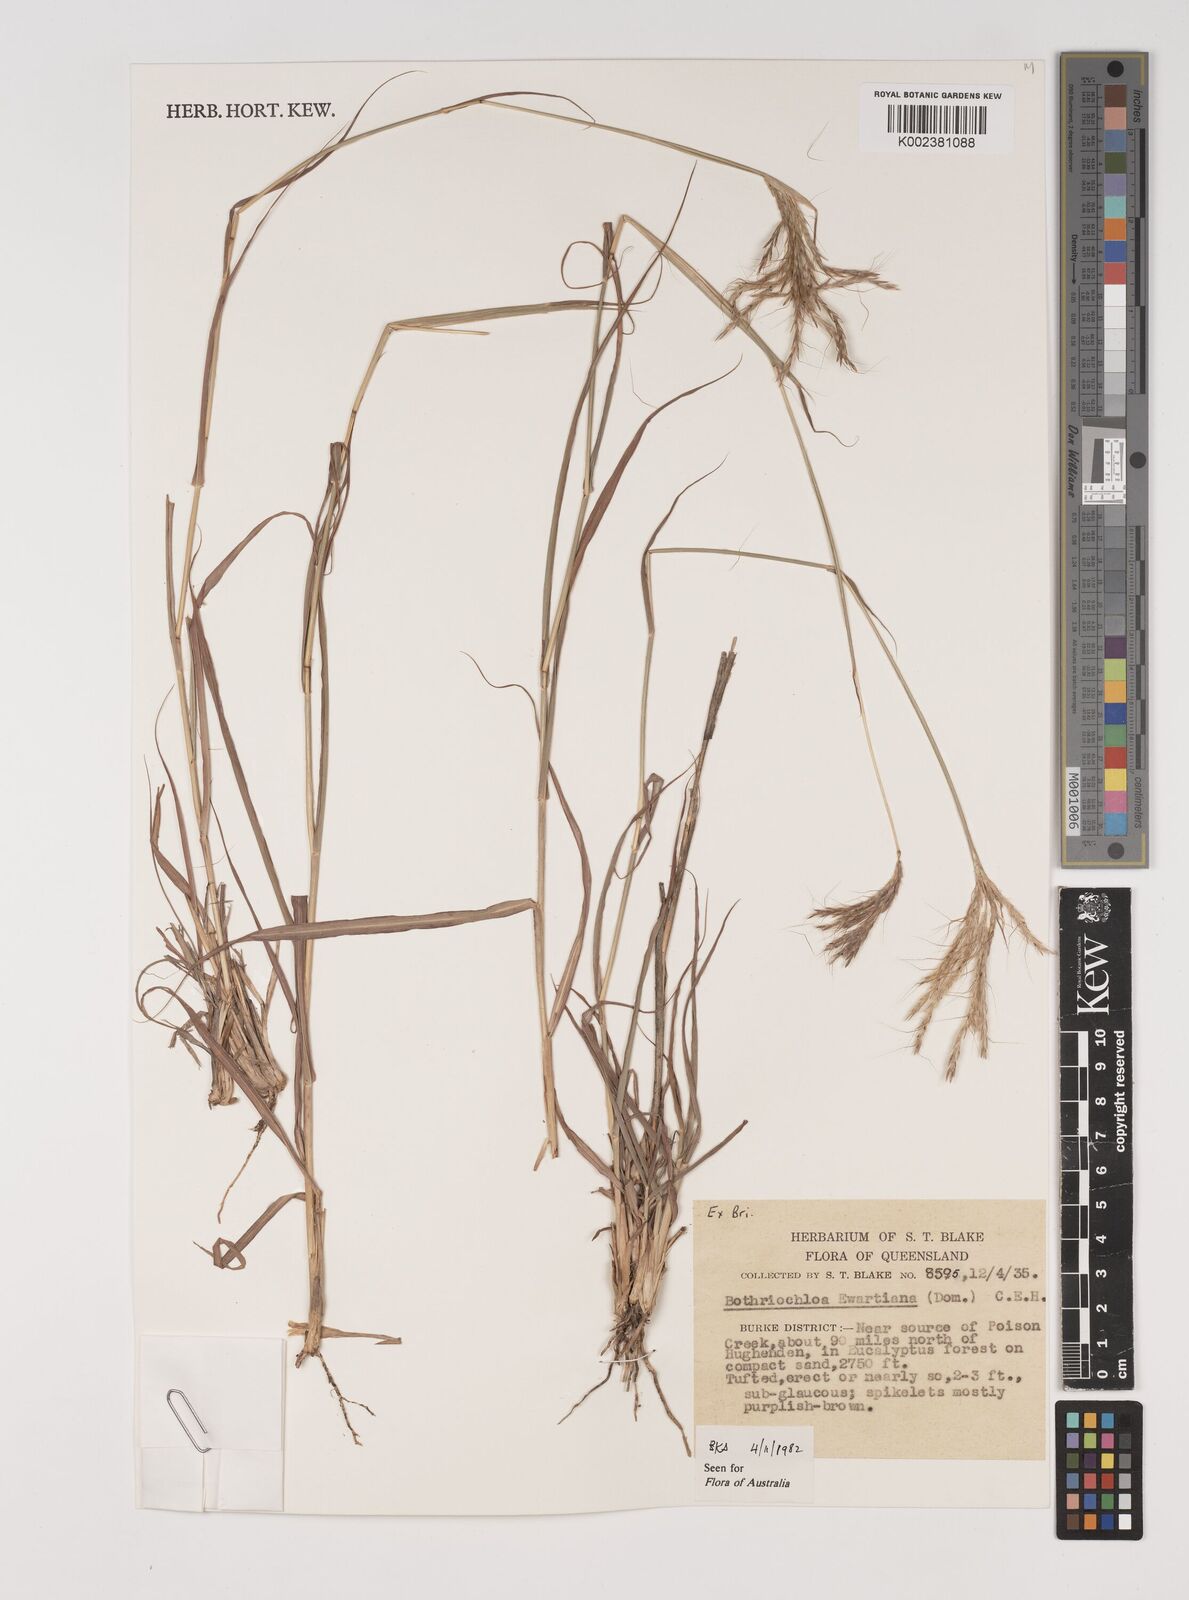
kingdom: Plantae
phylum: Tracheophyta
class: Liliopsida
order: Poales
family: Poaceae
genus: Bothriochloa
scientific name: Bothriochloa ewartiana
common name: Desert-bluegrass
